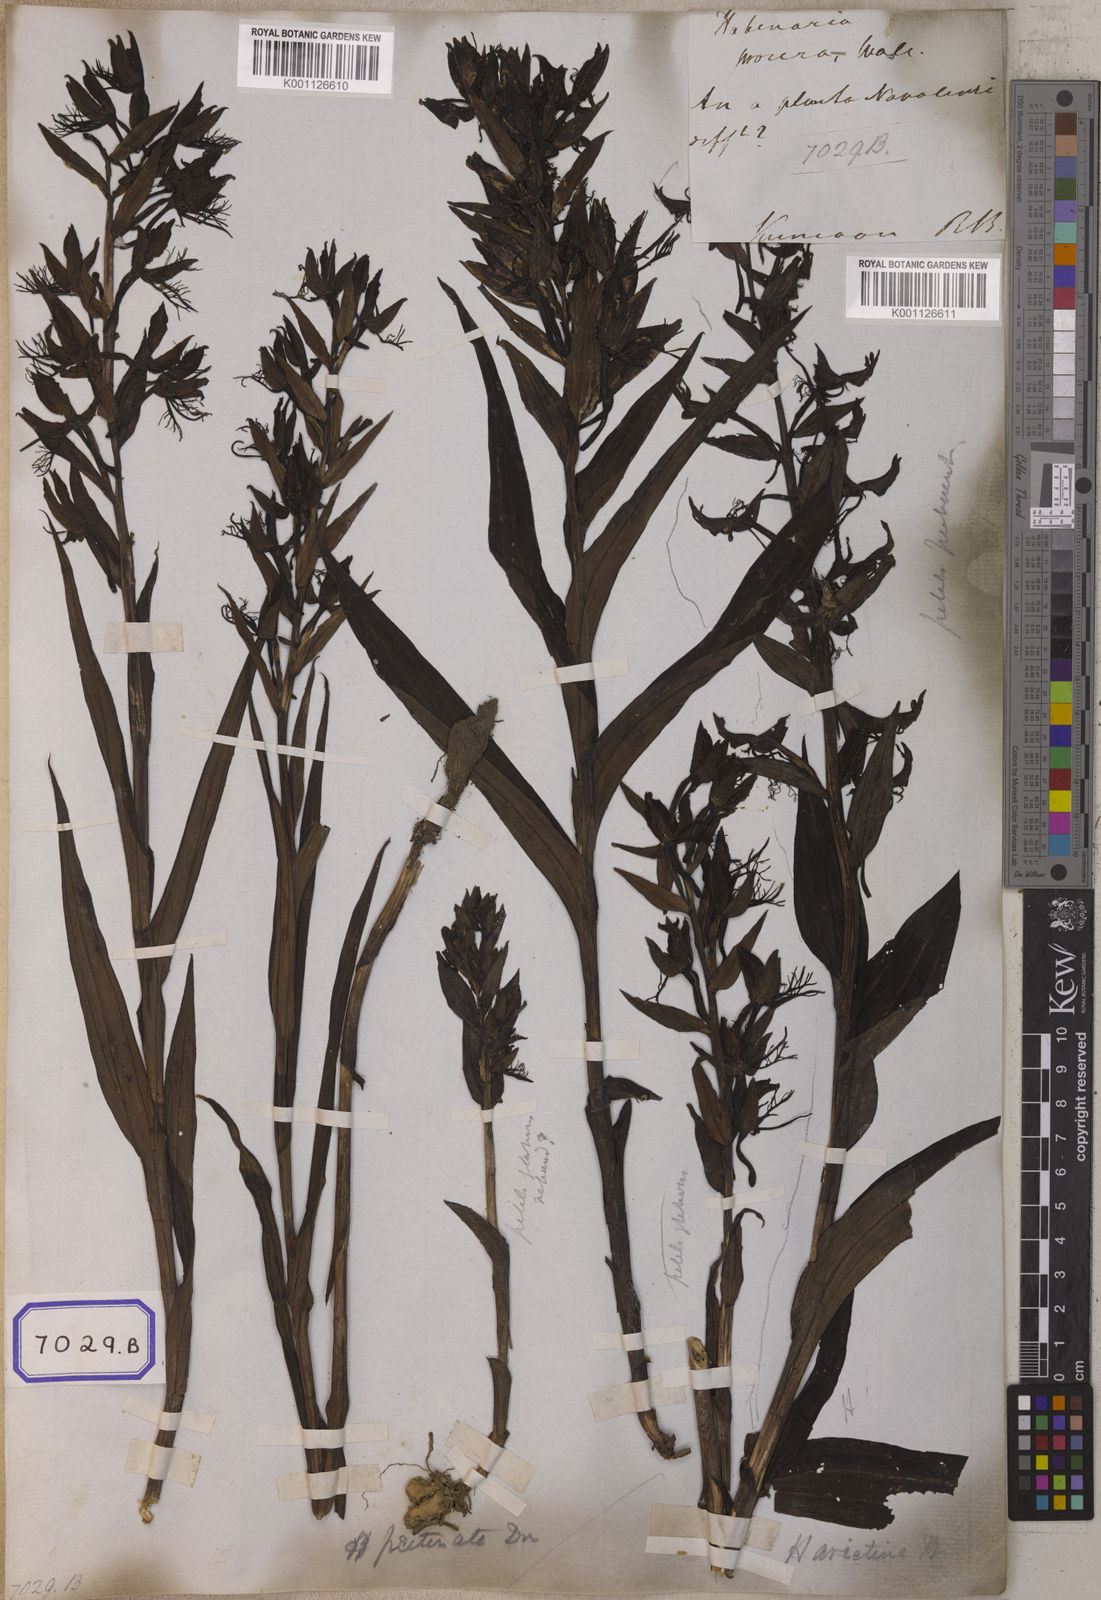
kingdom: Plantae
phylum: Tracheophyta
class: Liliopsida
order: Asparagales
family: Orchidaceae
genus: Habenaria
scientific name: Habenaria pectinata
